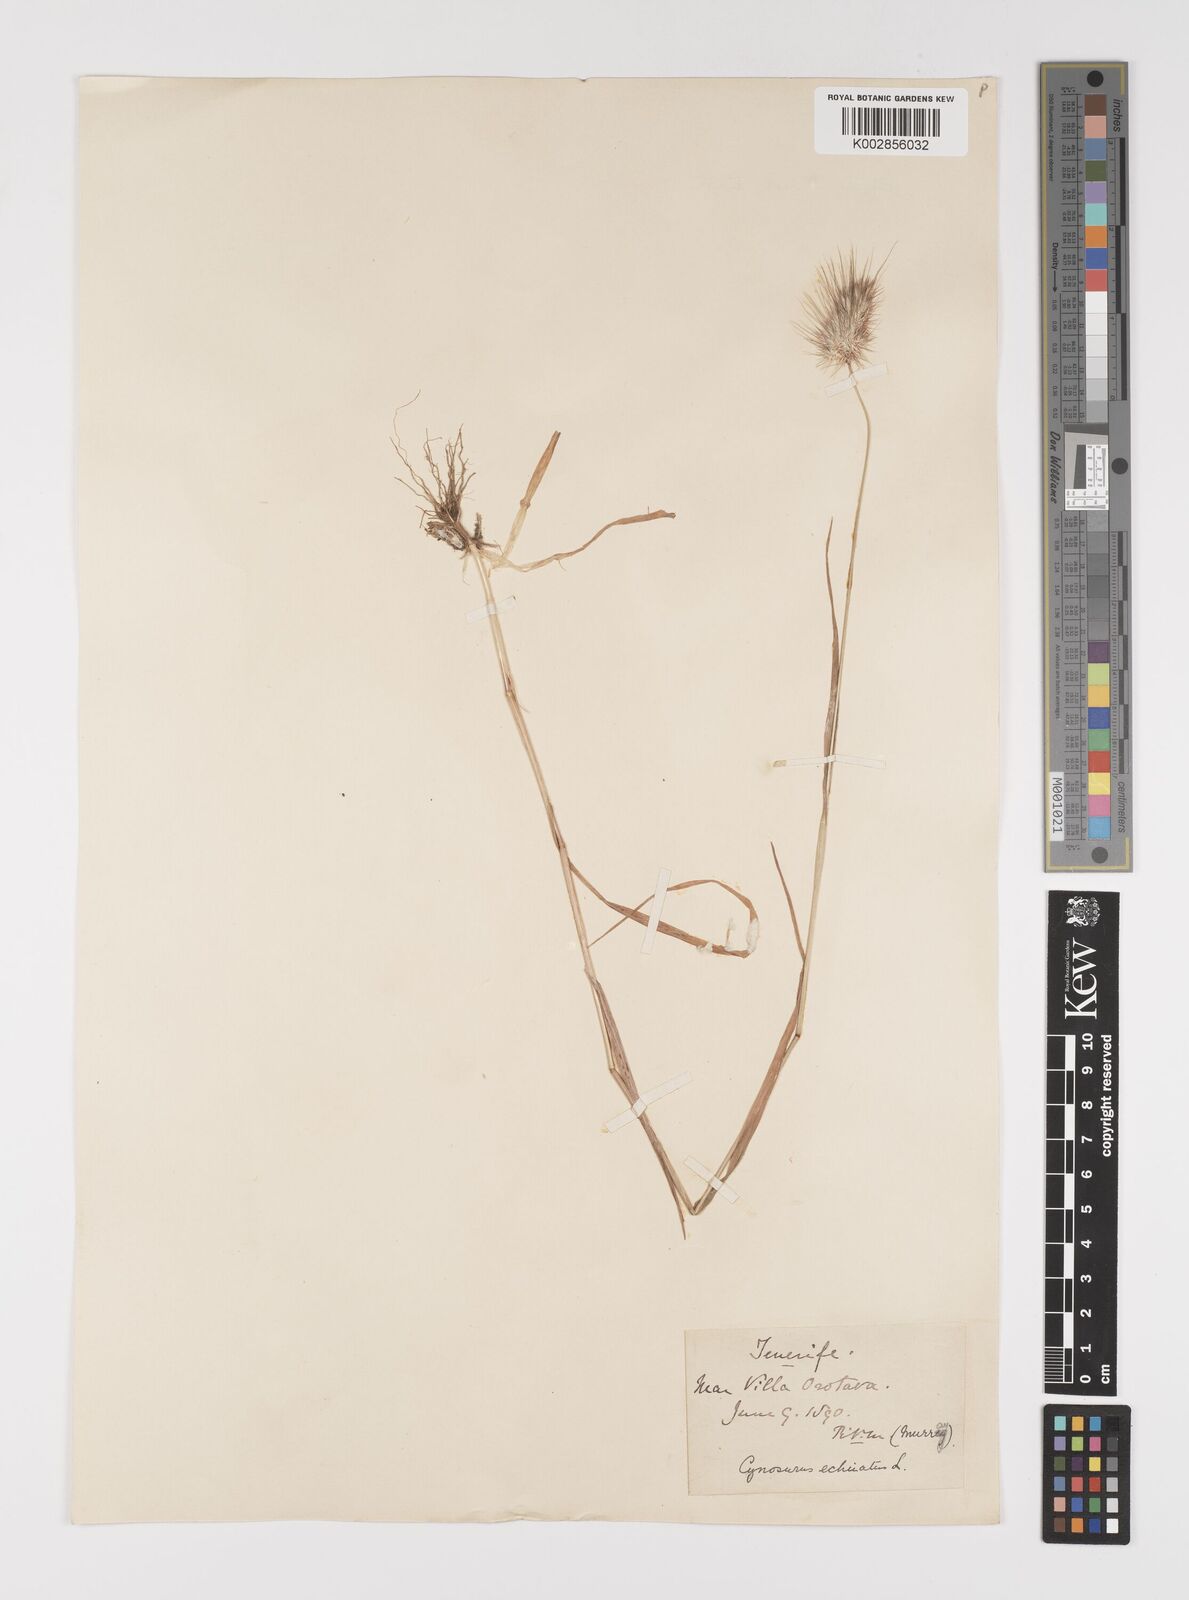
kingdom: Plantae
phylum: Tracheophyta
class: Liliopsida
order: Poales
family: Poaceae
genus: Cynosurus
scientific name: Cynosurus echinatus
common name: Rough dog's-tail
